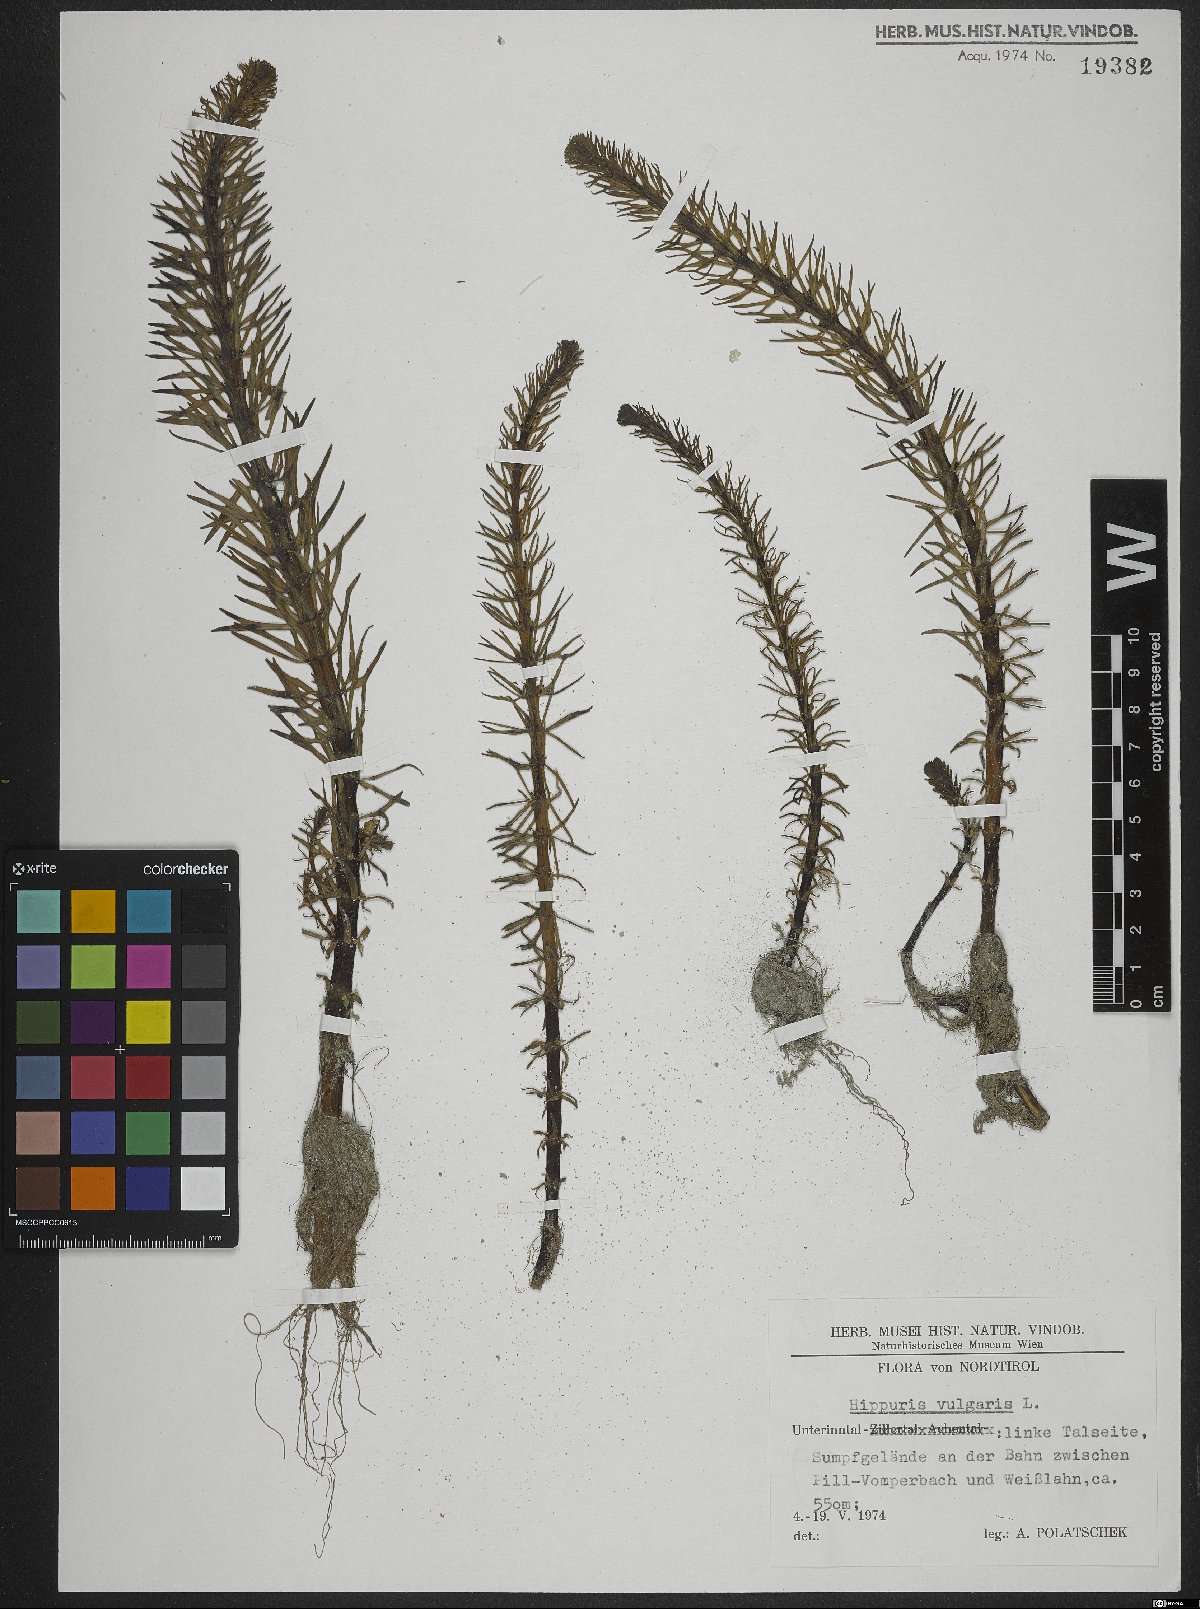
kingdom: Plantae
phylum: Tracheophyta
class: Magnoliopsida
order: Lamiales
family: Plantaginaceae
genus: Hippuris
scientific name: Hippuris vulgaris
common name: Mare's-tail
